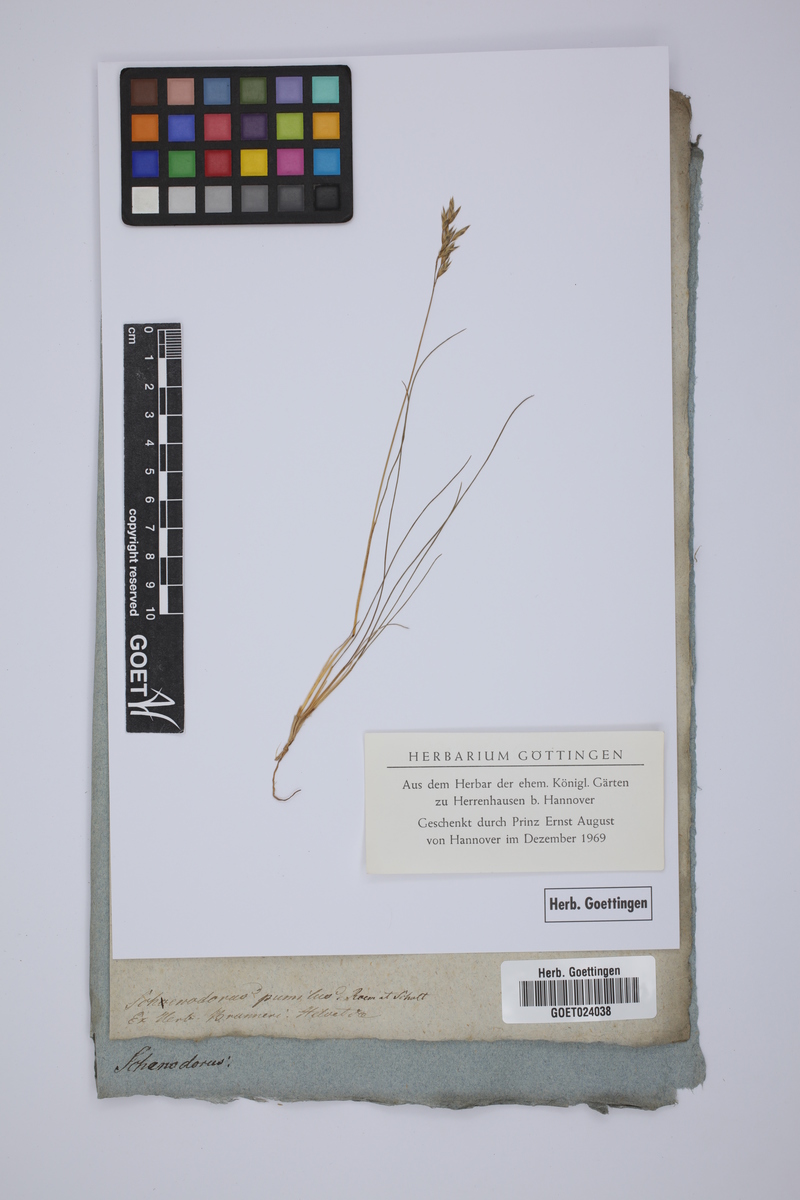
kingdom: Plantae
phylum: Tracheophyta
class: Liliopsida
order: Poales
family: Poaceae
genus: Festuca
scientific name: Festuca quadriflora
